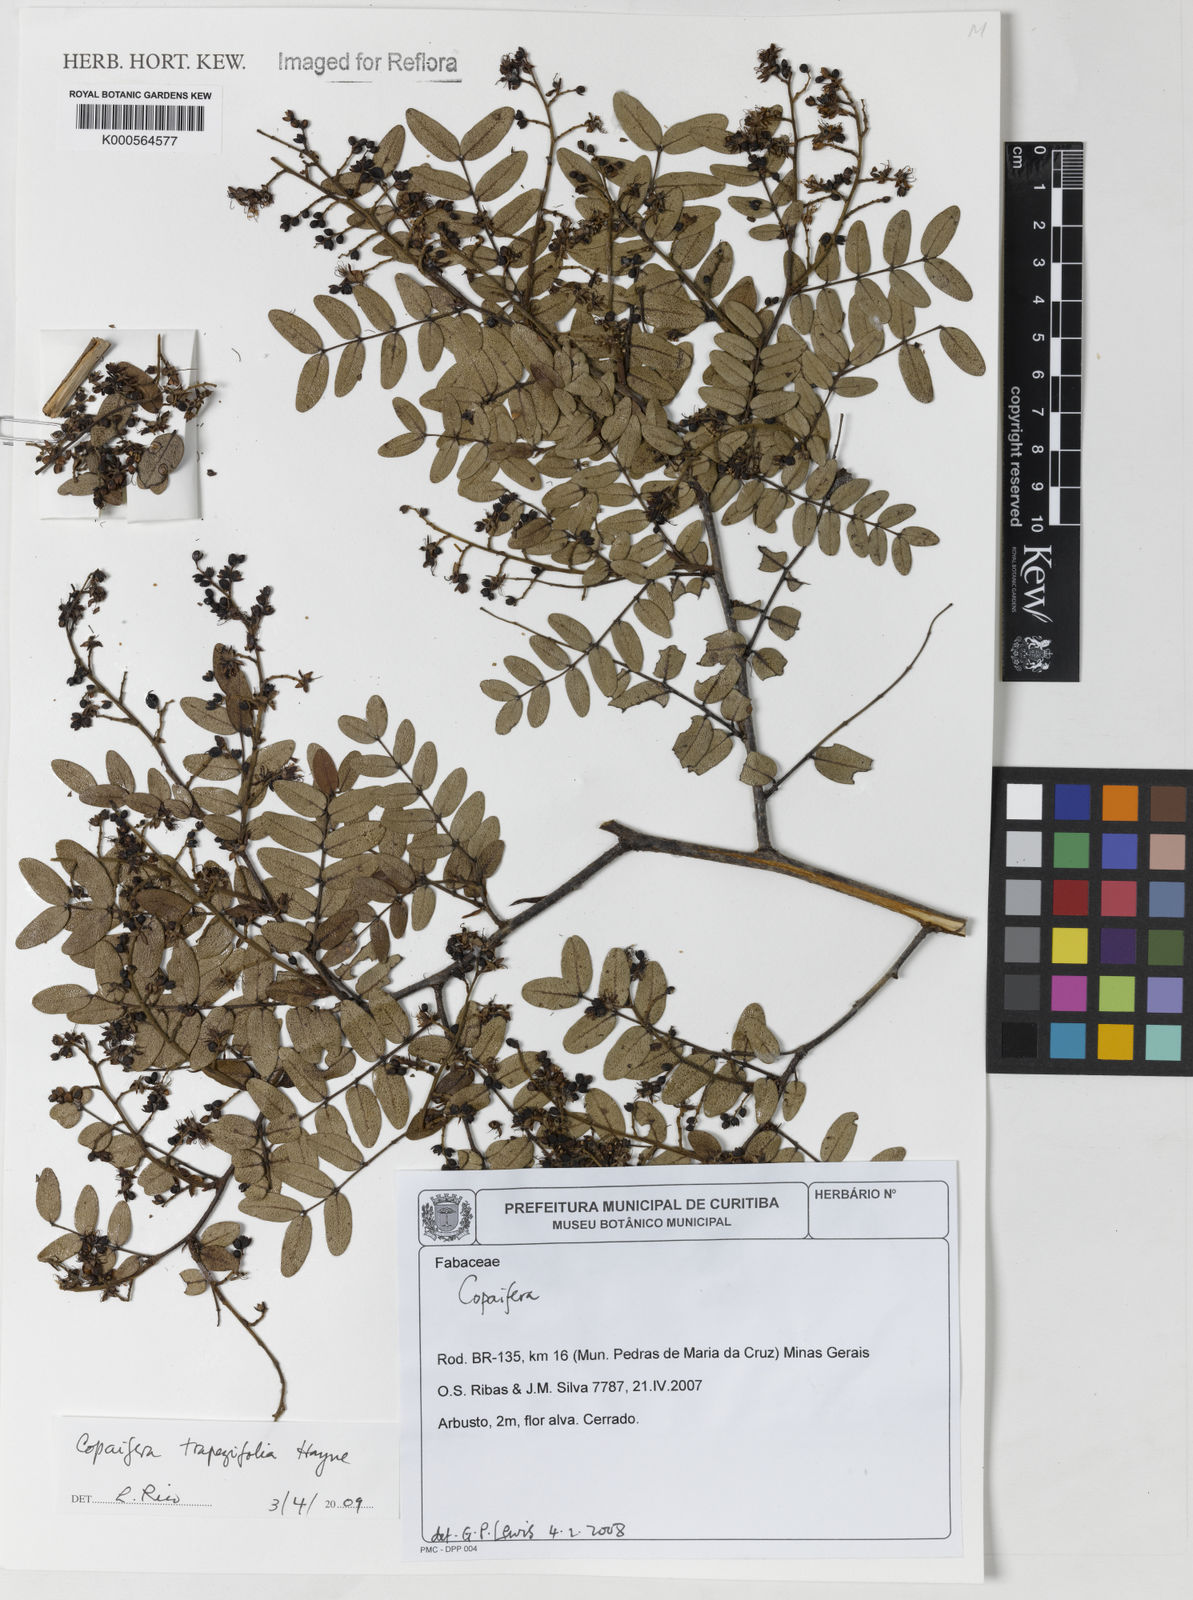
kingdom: Plantae
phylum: Tracheophyta
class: Magnoliopsida
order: Fabales
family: Fabaceae
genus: Copaifera
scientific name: Copaifera trapezifolia
